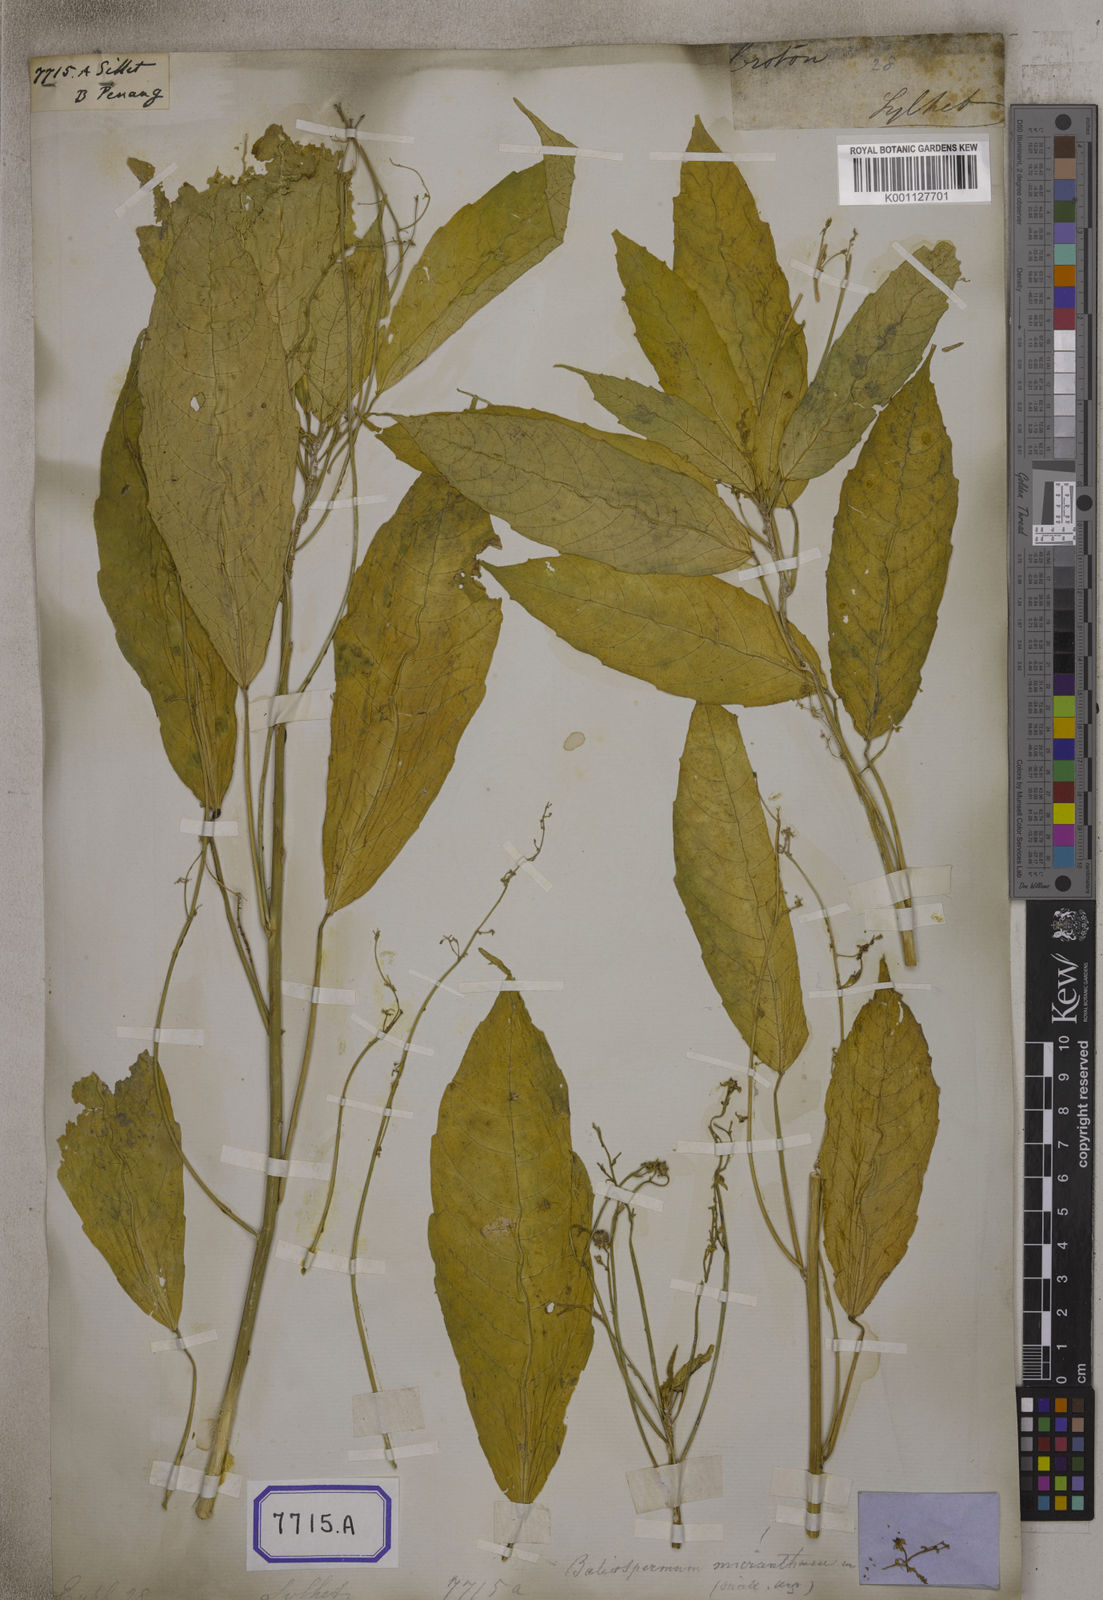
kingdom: Plantae
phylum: Tracheophyta
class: Magnoliopsida
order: Malpighiales
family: Euphorbiaceae
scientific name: Euphorbiaceae
